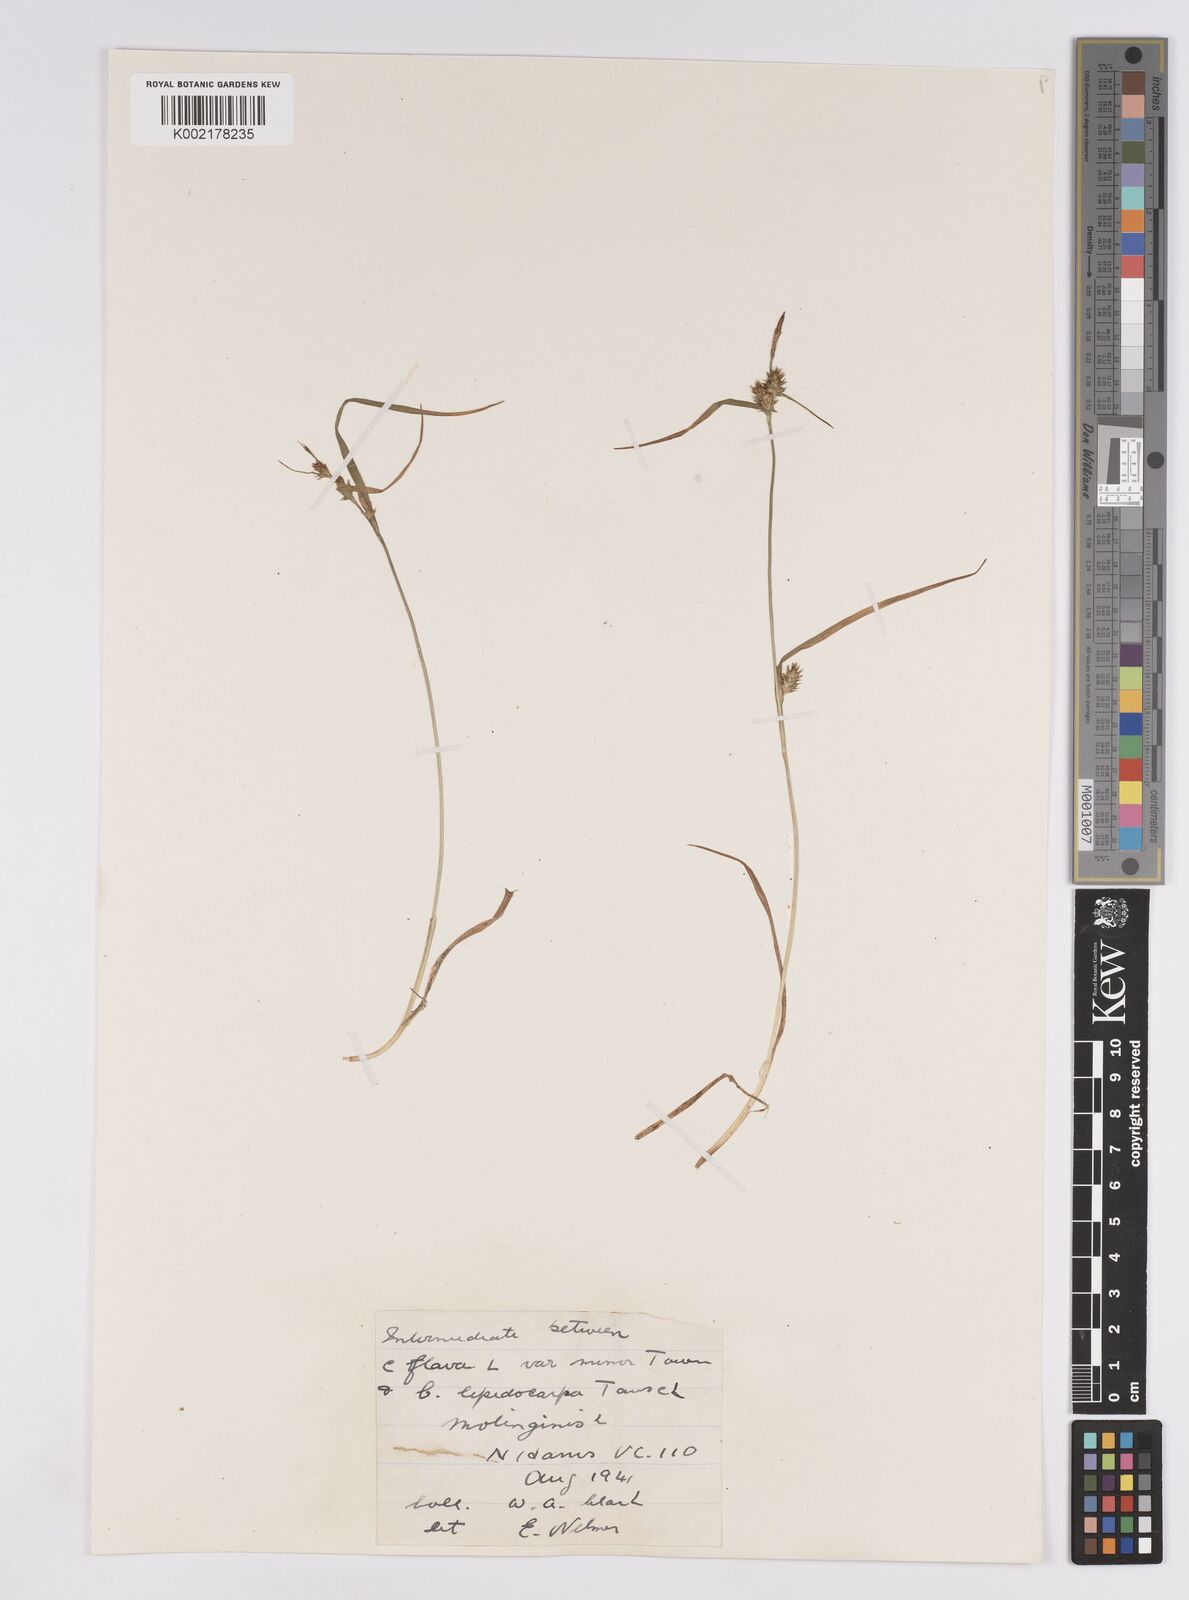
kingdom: Plantae
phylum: Tracheophyta
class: Liliopsida
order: Poales
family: Cyperaceae
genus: Carex
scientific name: Carex demissa
